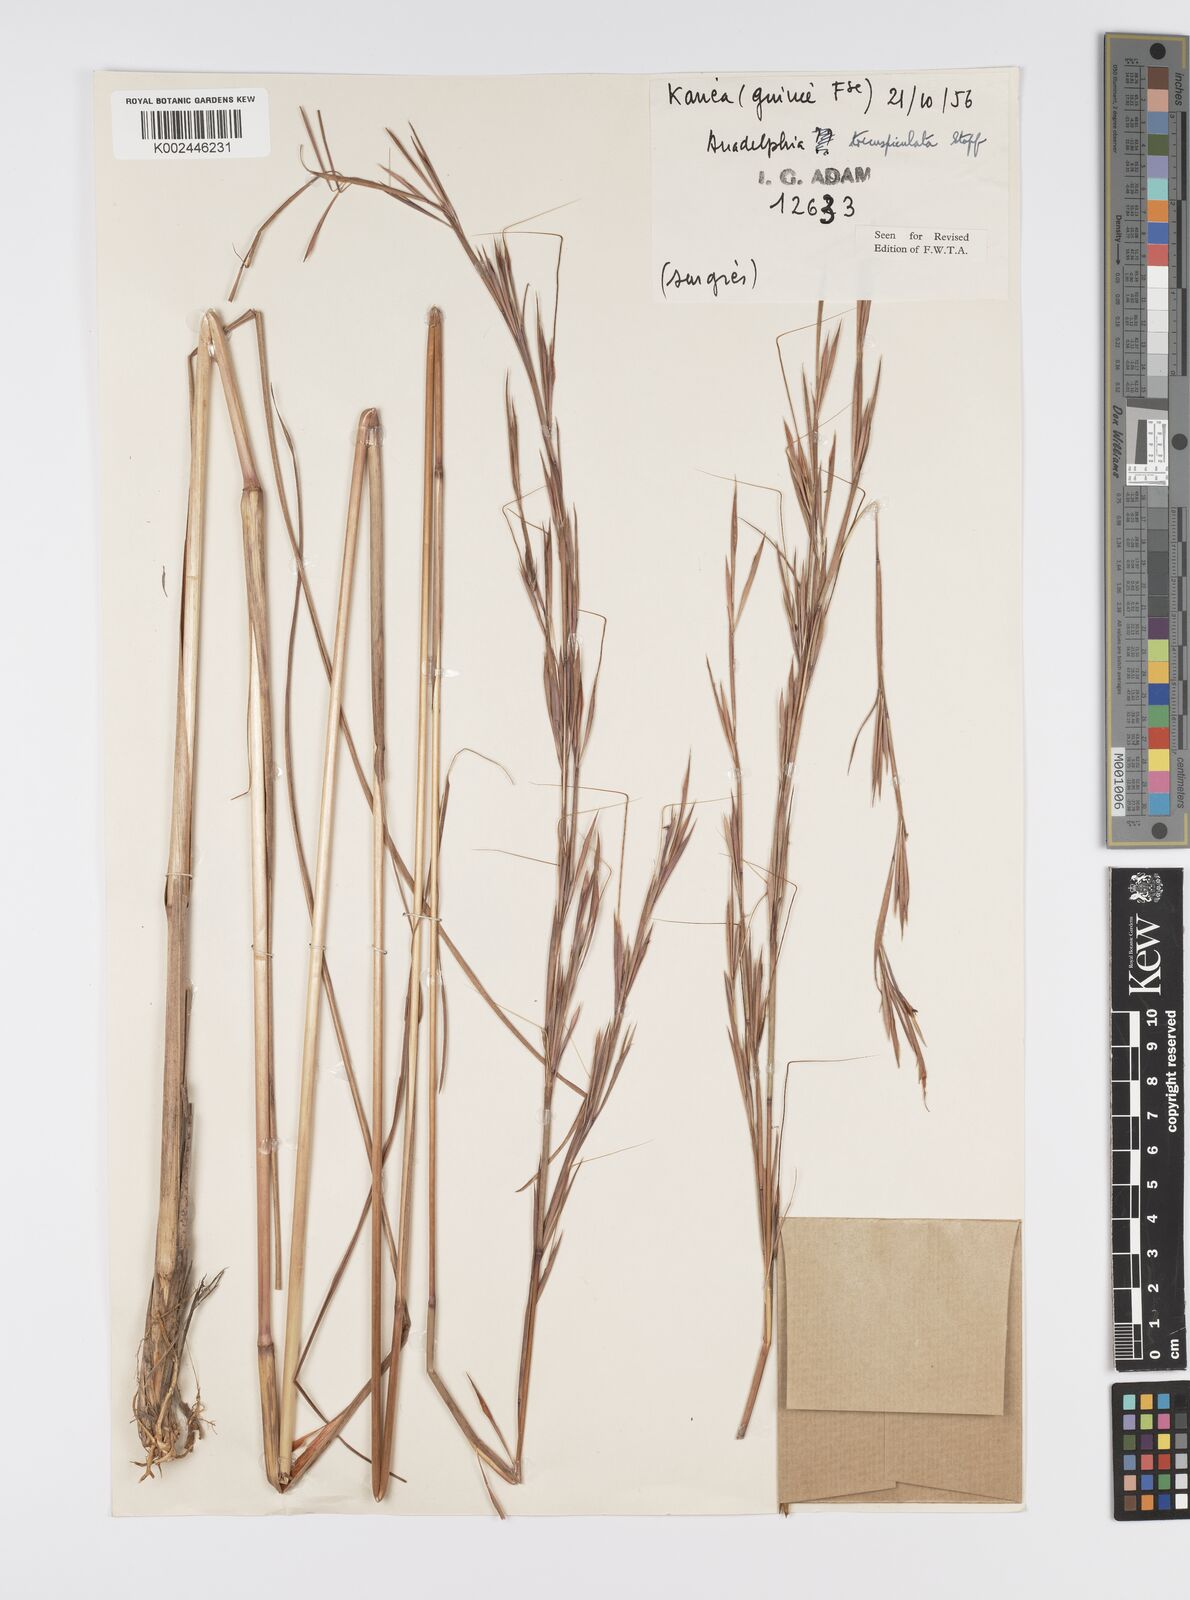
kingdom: Plantae
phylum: Tracheophyta
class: Liliopsida
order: Poales
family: Poaceae
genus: Anadelphia
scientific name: Anadelphia trispiculata
